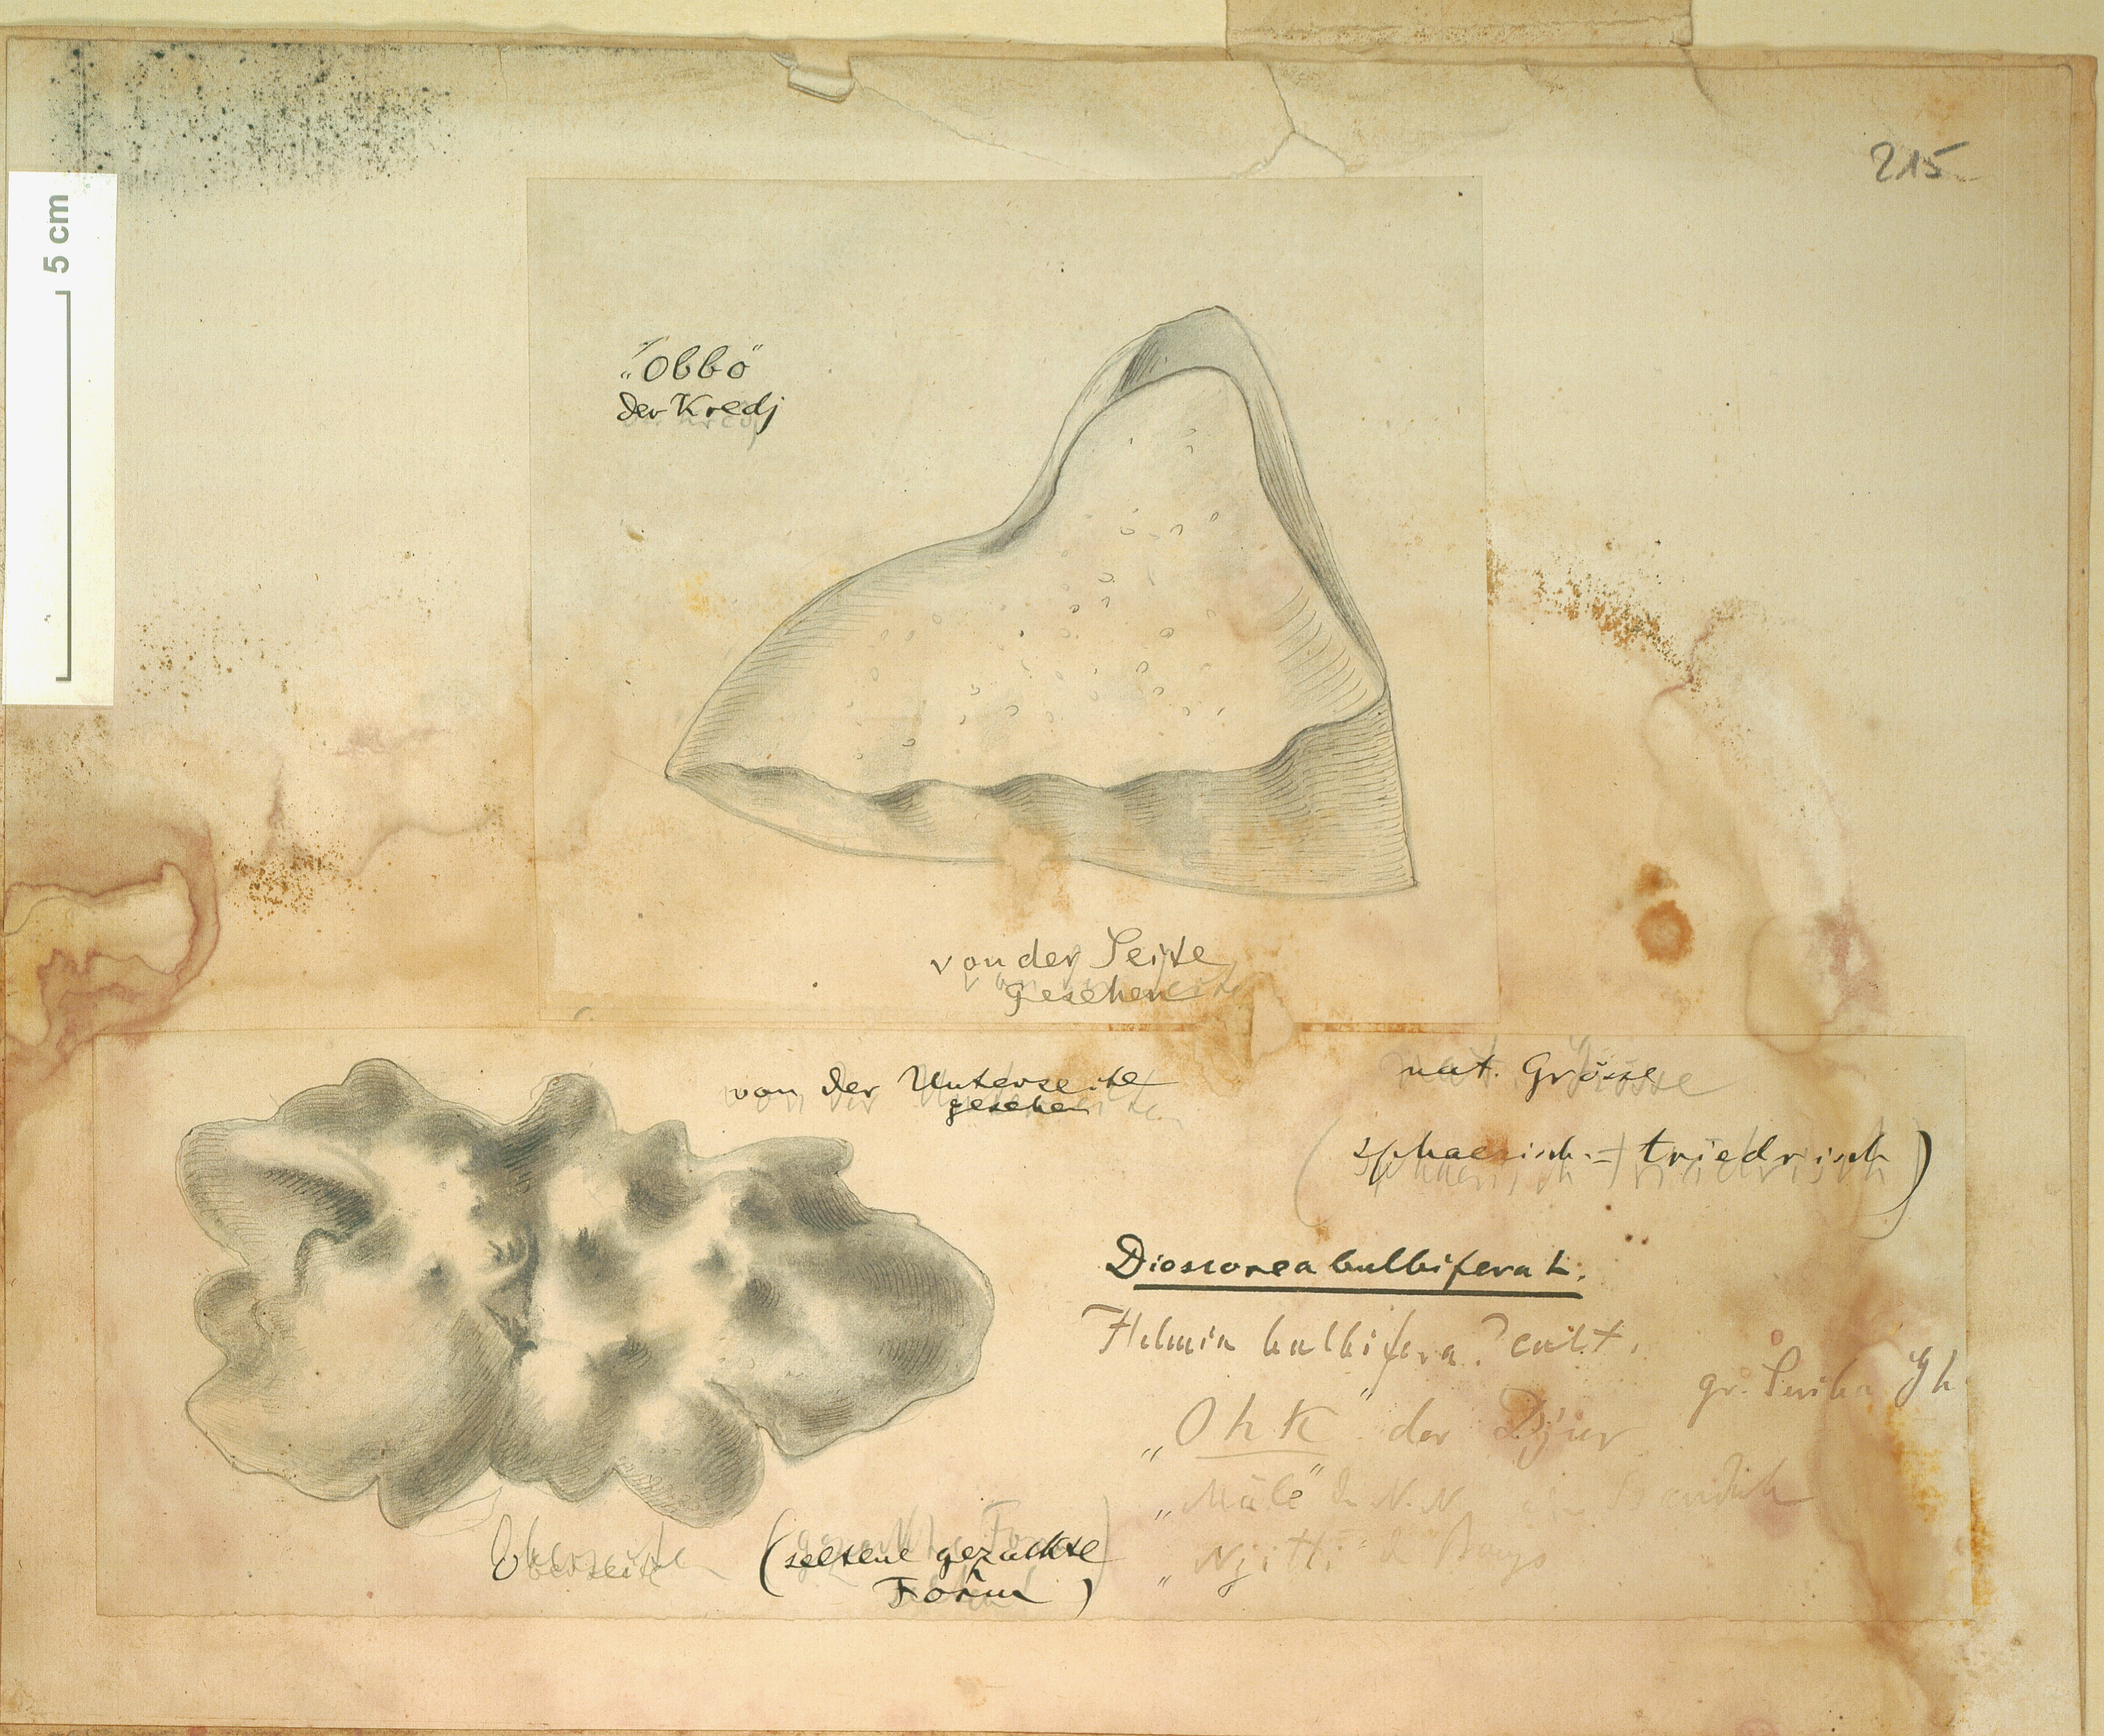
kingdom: Plantae
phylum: Tracheophyta
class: Liliopsida
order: Dioscoreales
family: Dioscoreaceae
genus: Dioscorea
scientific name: Dioscorea bulbifera
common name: Air yam
